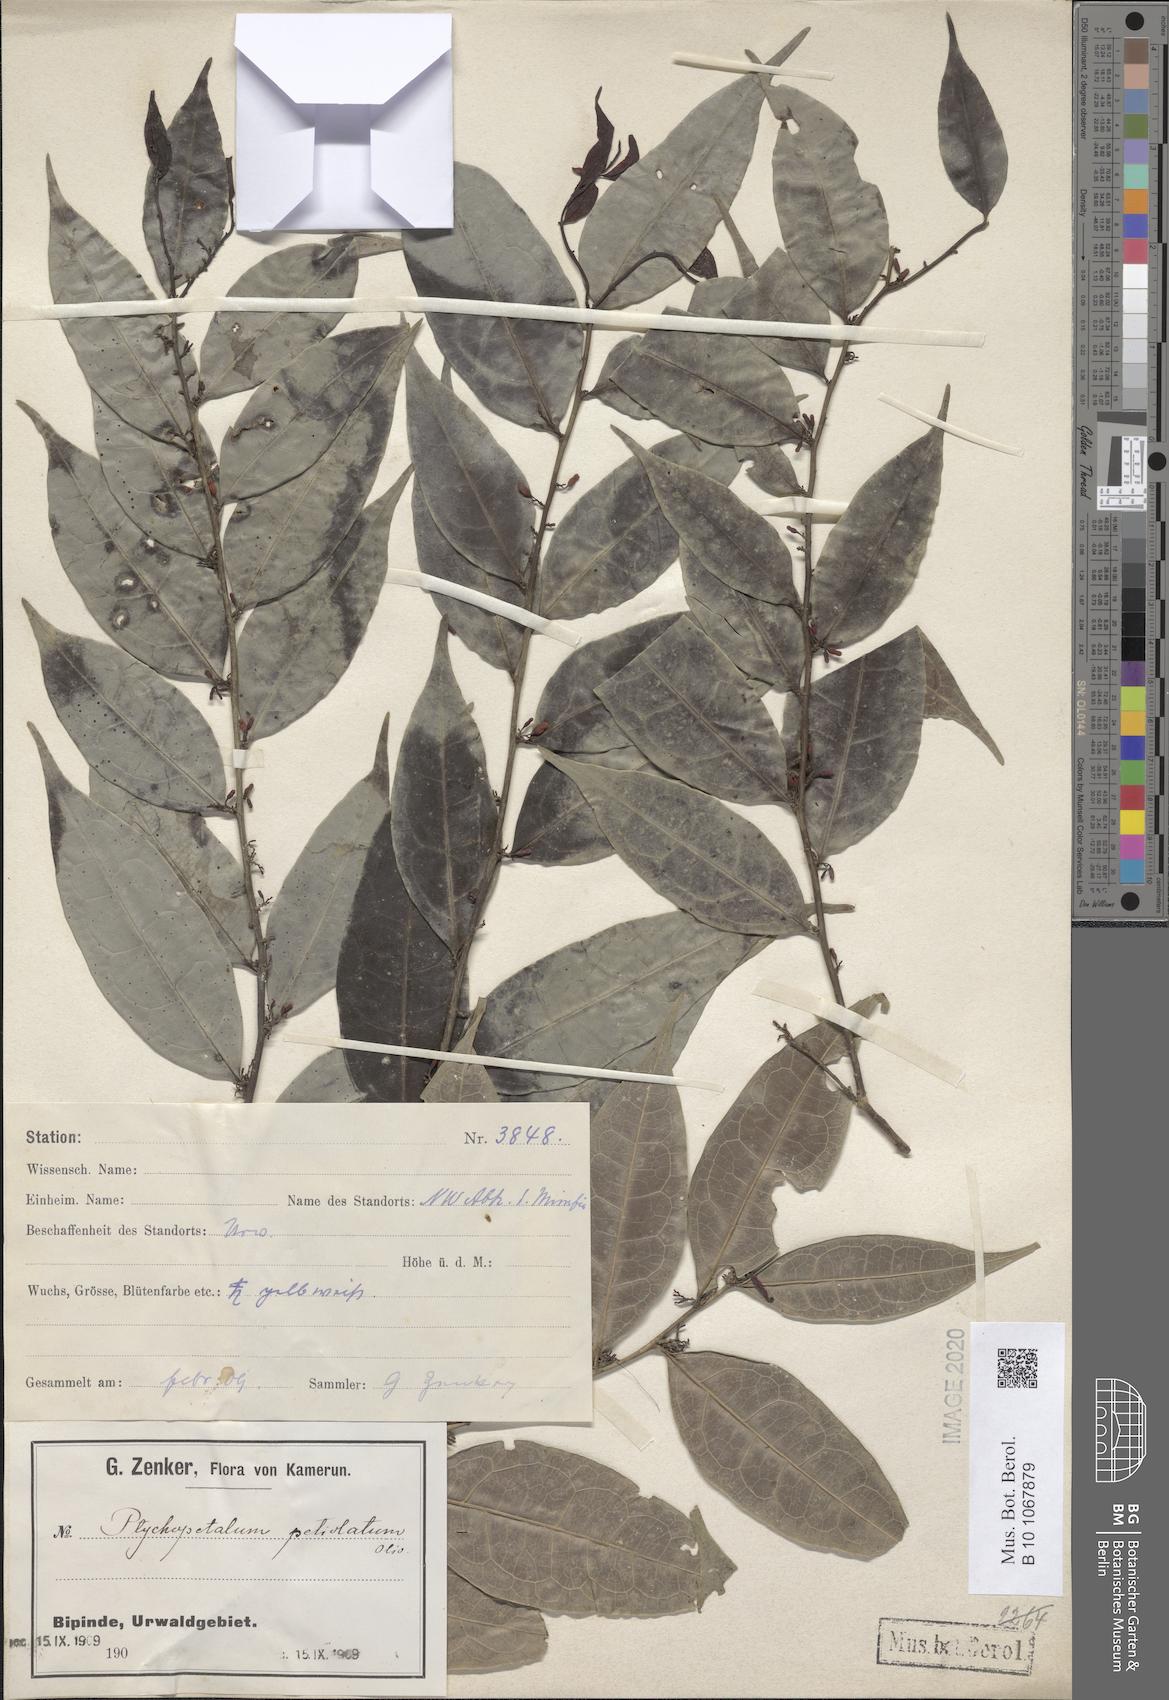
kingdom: Plantae
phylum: Tracheophyta
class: Magnoliopsida
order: Santalales
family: Olacaceae
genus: Ptychopetalum
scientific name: Ptychopetalum petiolatum
